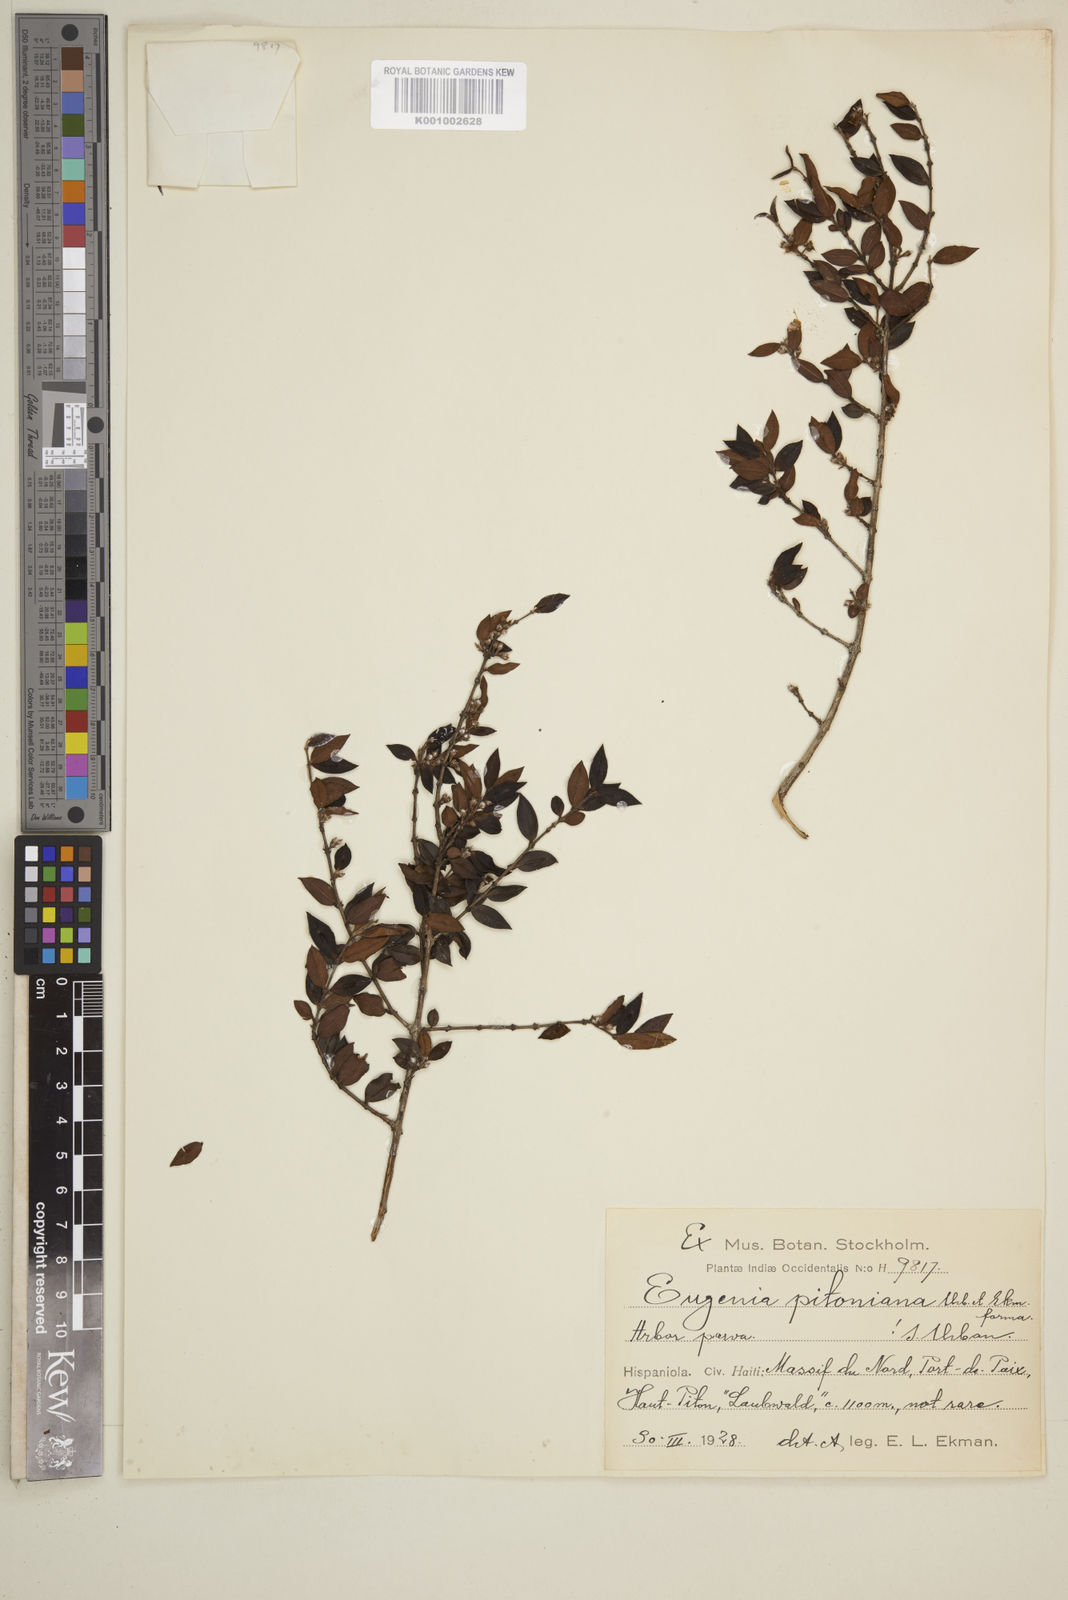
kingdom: Plantae
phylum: Tracheophyta
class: Magnoliopsida
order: Myrtales
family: Myrtaceae
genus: Eugenia
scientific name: Eugenia picardae
